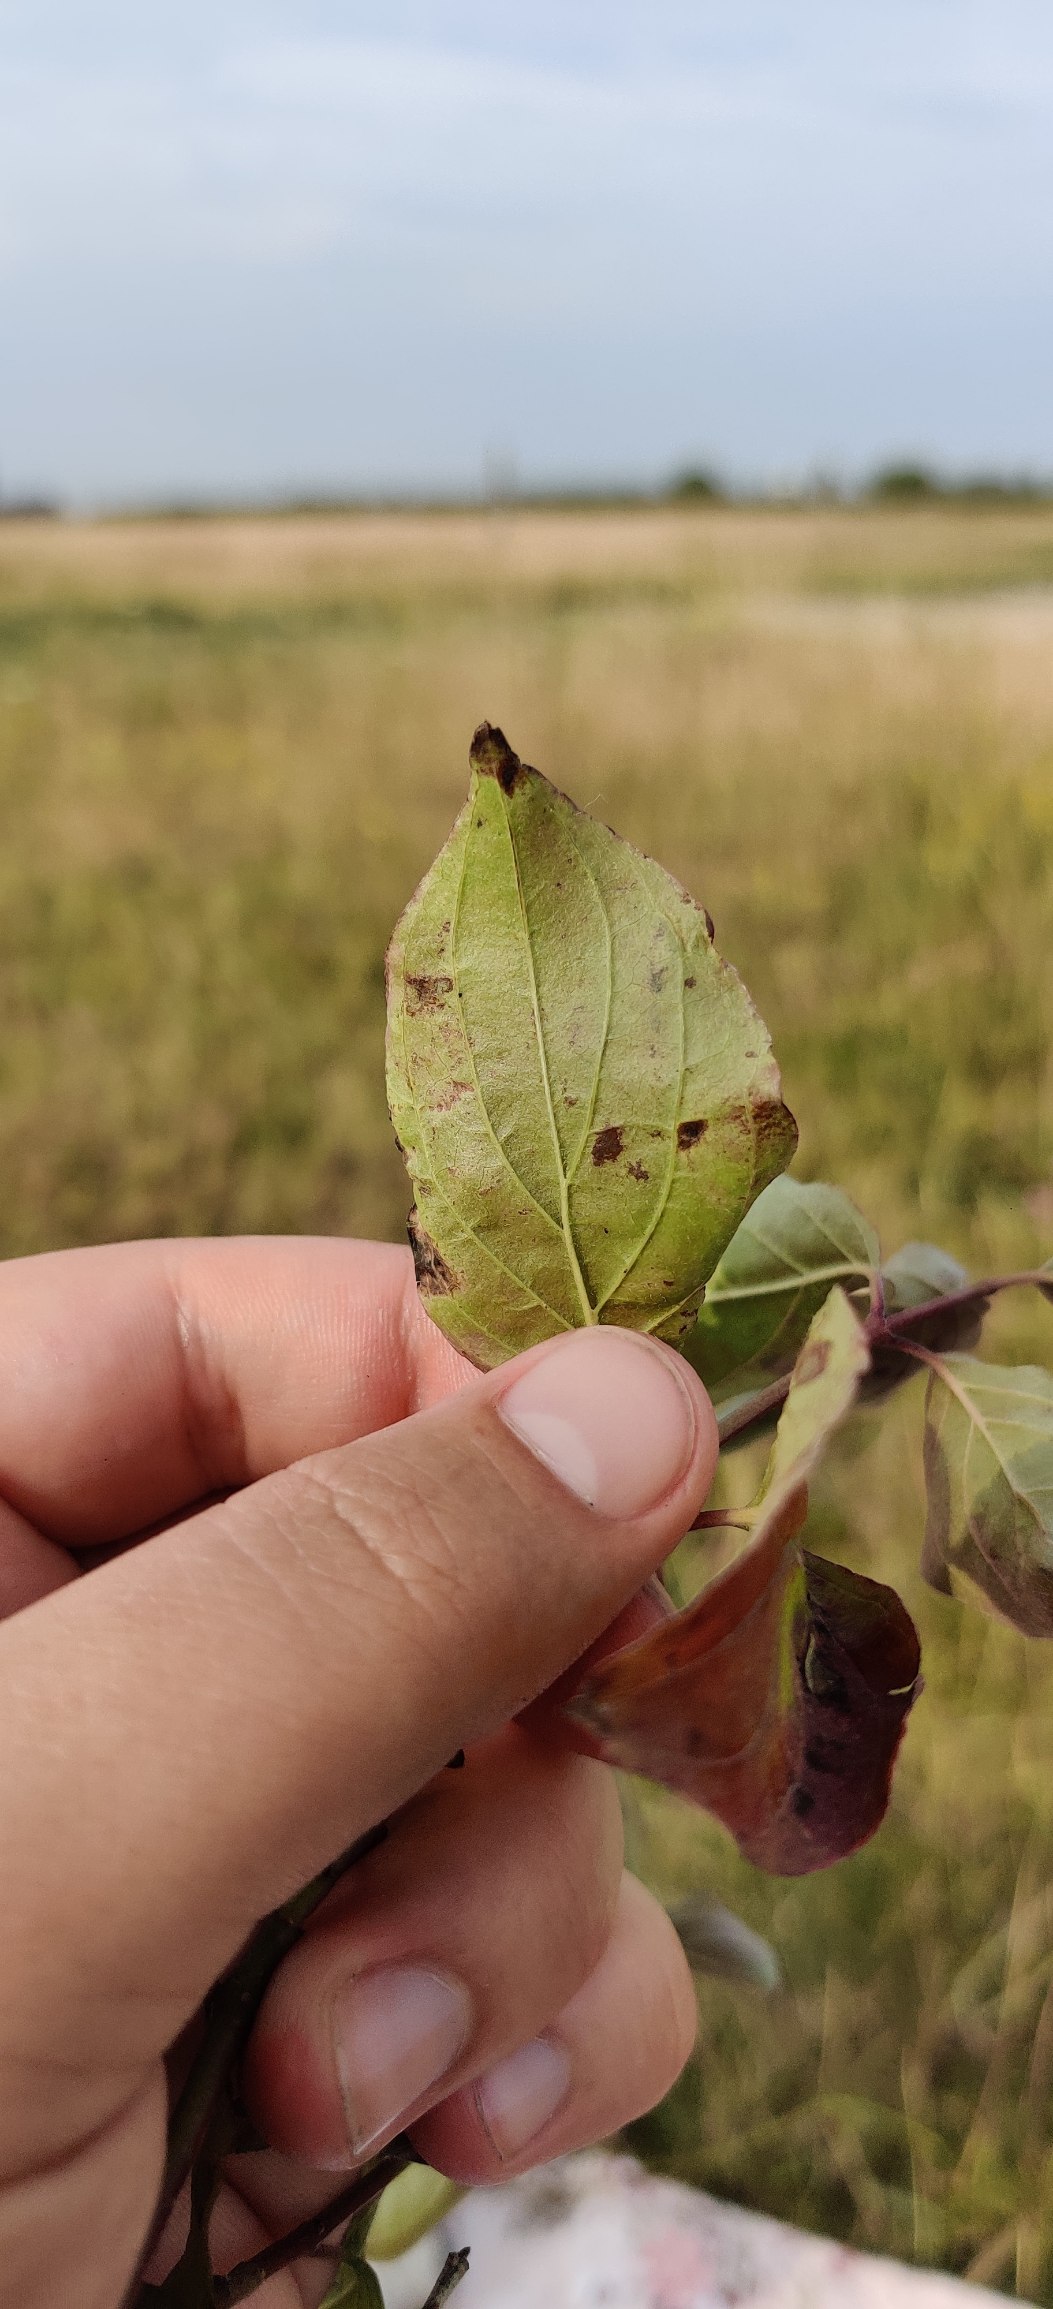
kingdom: Plantae
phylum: Tracheophyta
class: Magnoliopsida
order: Cornales
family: Cornaceae
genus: Cornus
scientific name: Cornus sanguinea
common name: Rød kornel
